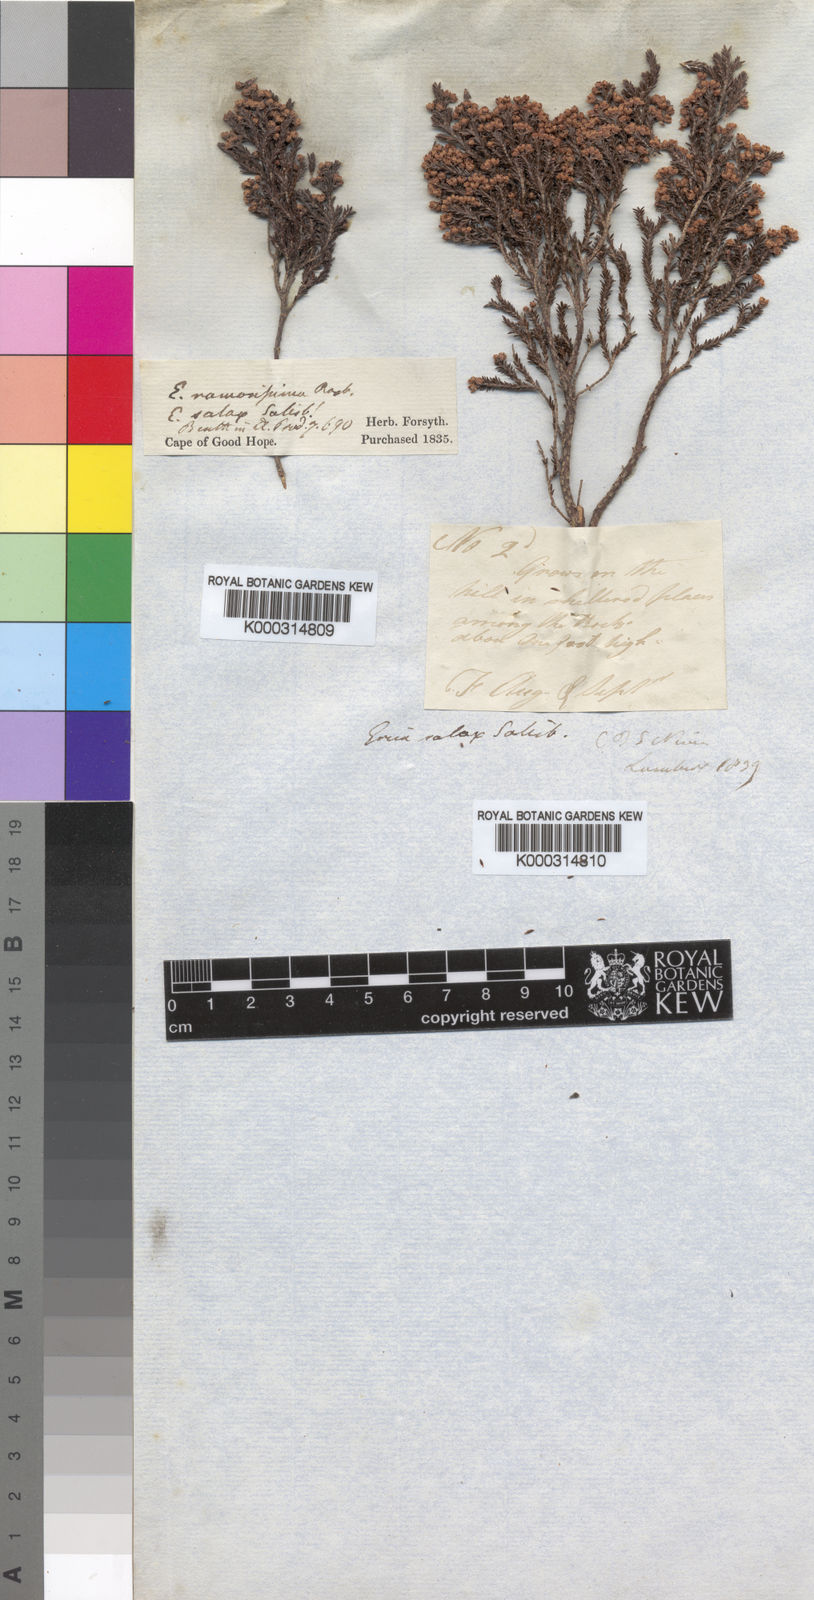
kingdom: Plantae
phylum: Tracheophyta
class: Magnoliopsida
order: Ericales
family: Ericaceae
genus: Erica
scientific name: Erica salax
